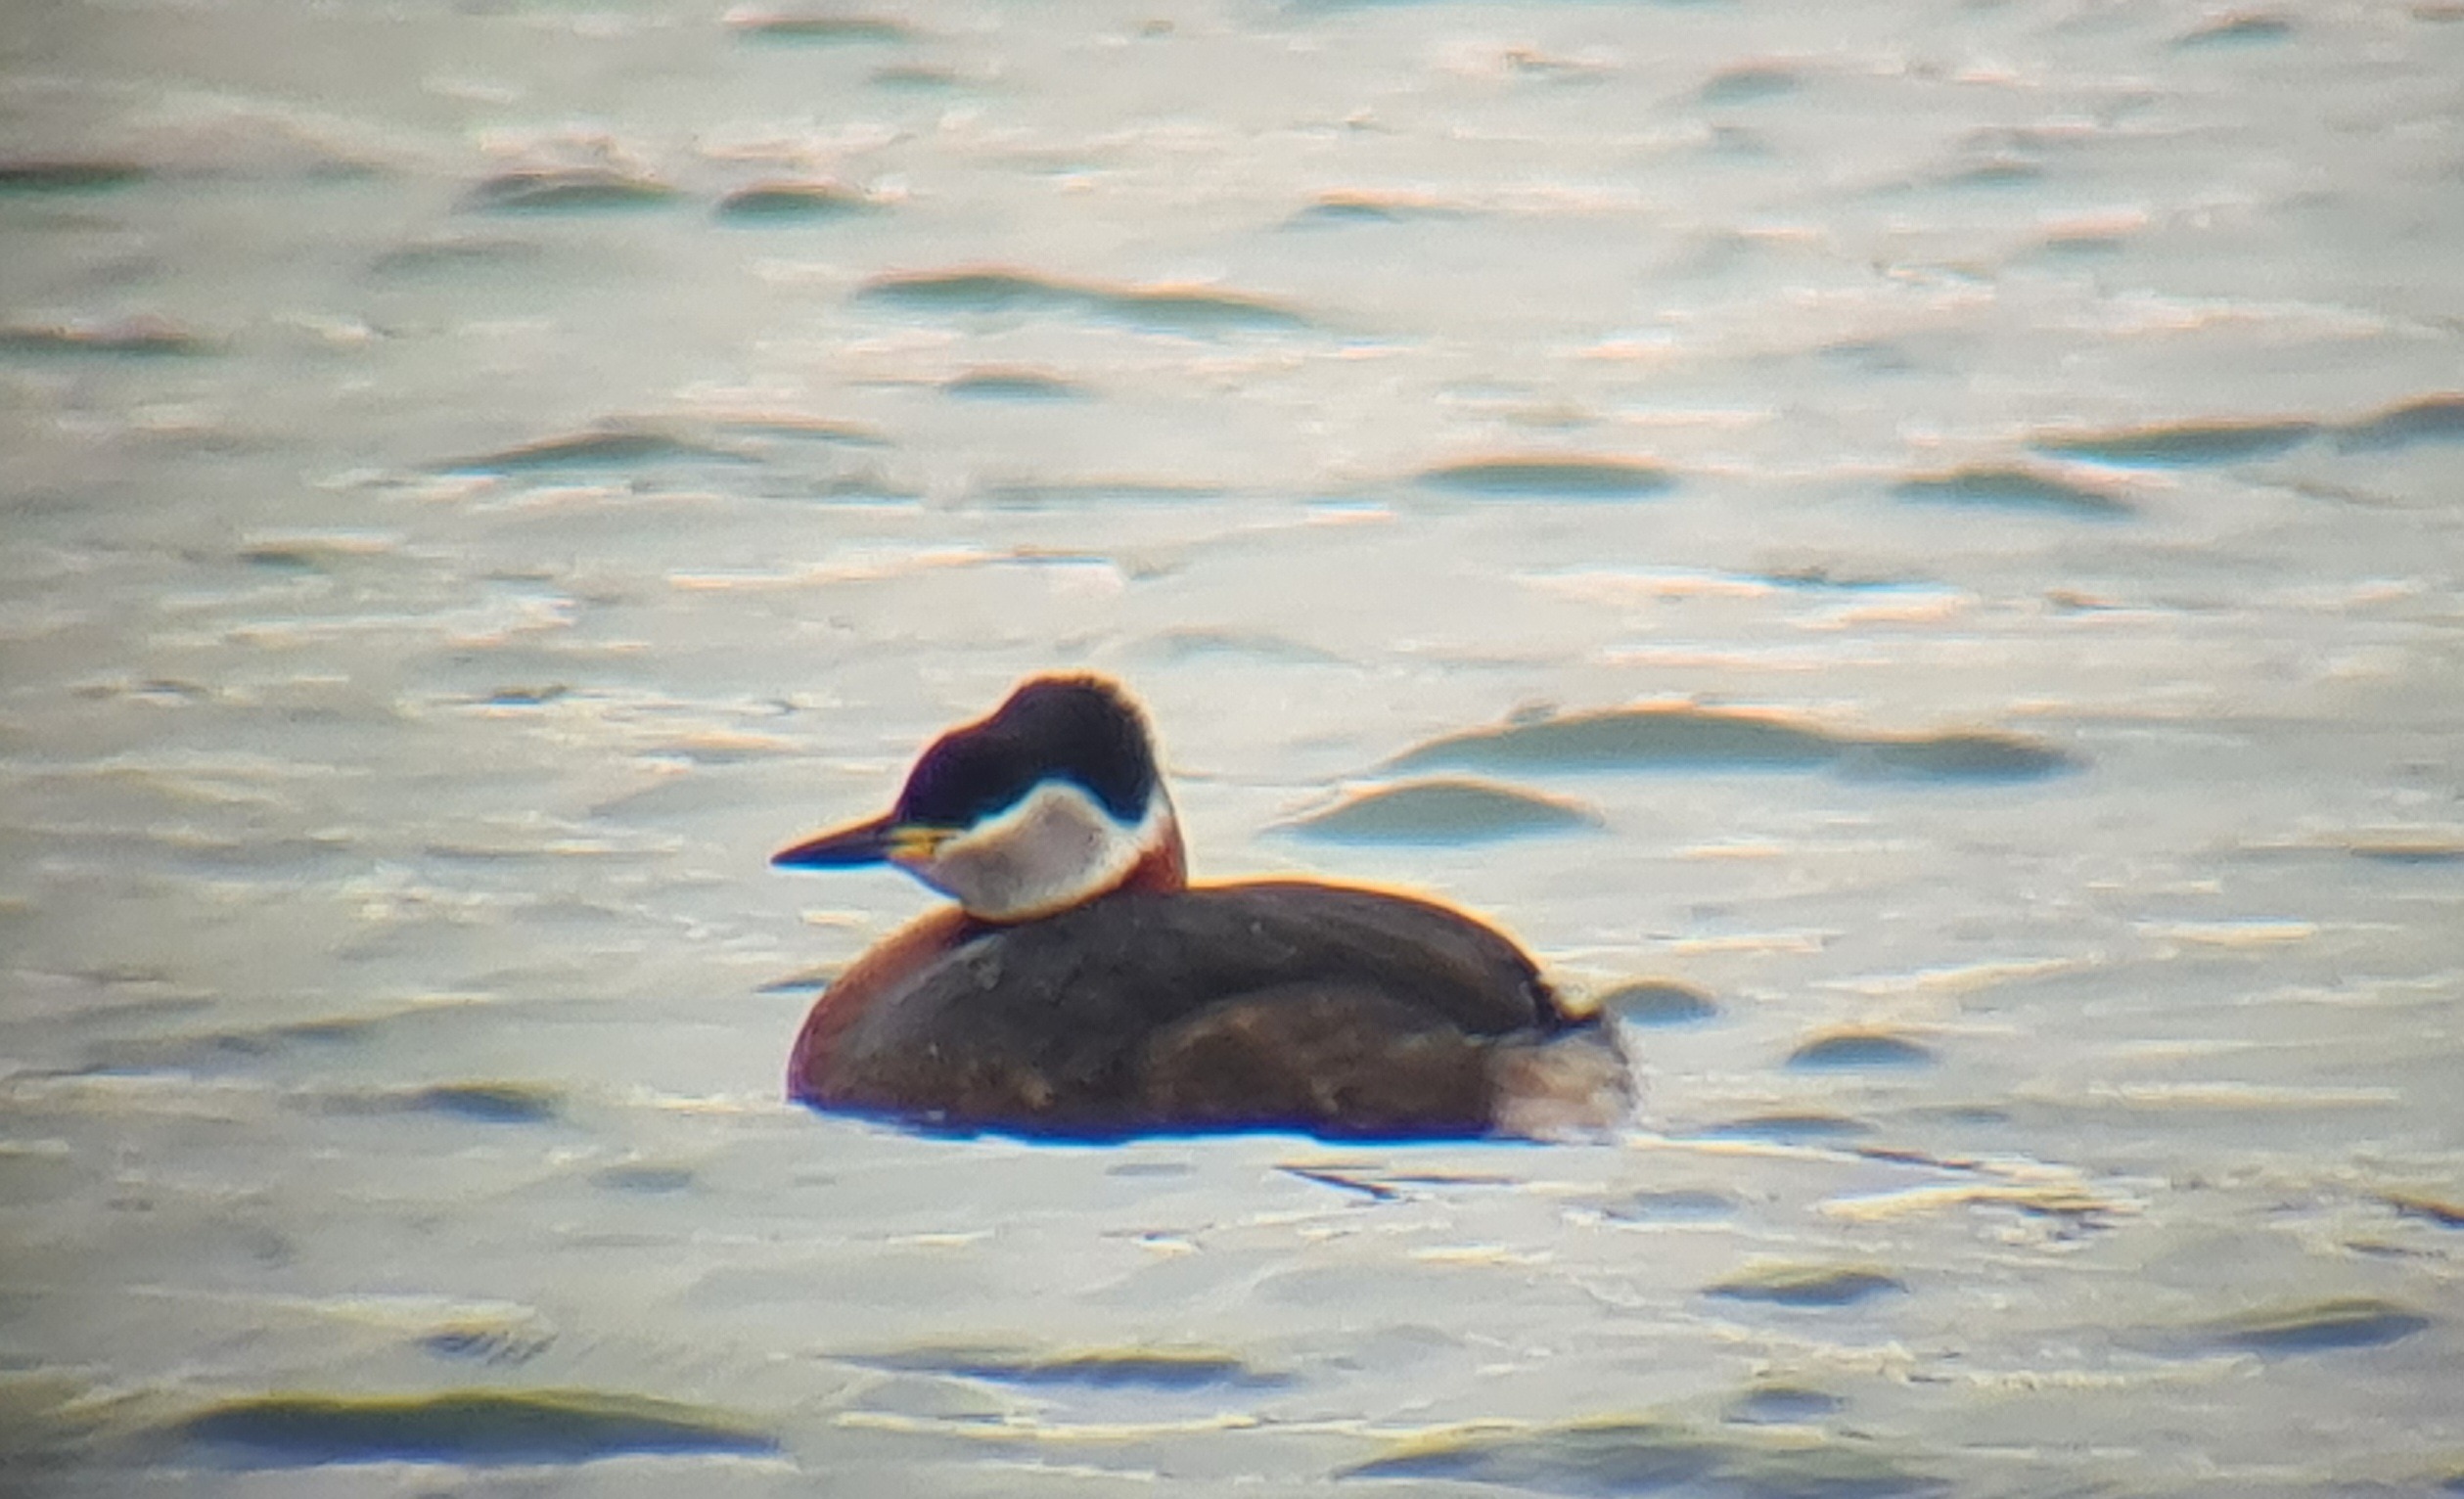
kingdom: Animalia
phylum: Chordata
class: Aves
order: Podicipediformes
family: Podicipedidae
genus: Podiceps
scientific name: Podiceps grisegena
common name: Gråstrubet lappedykker
